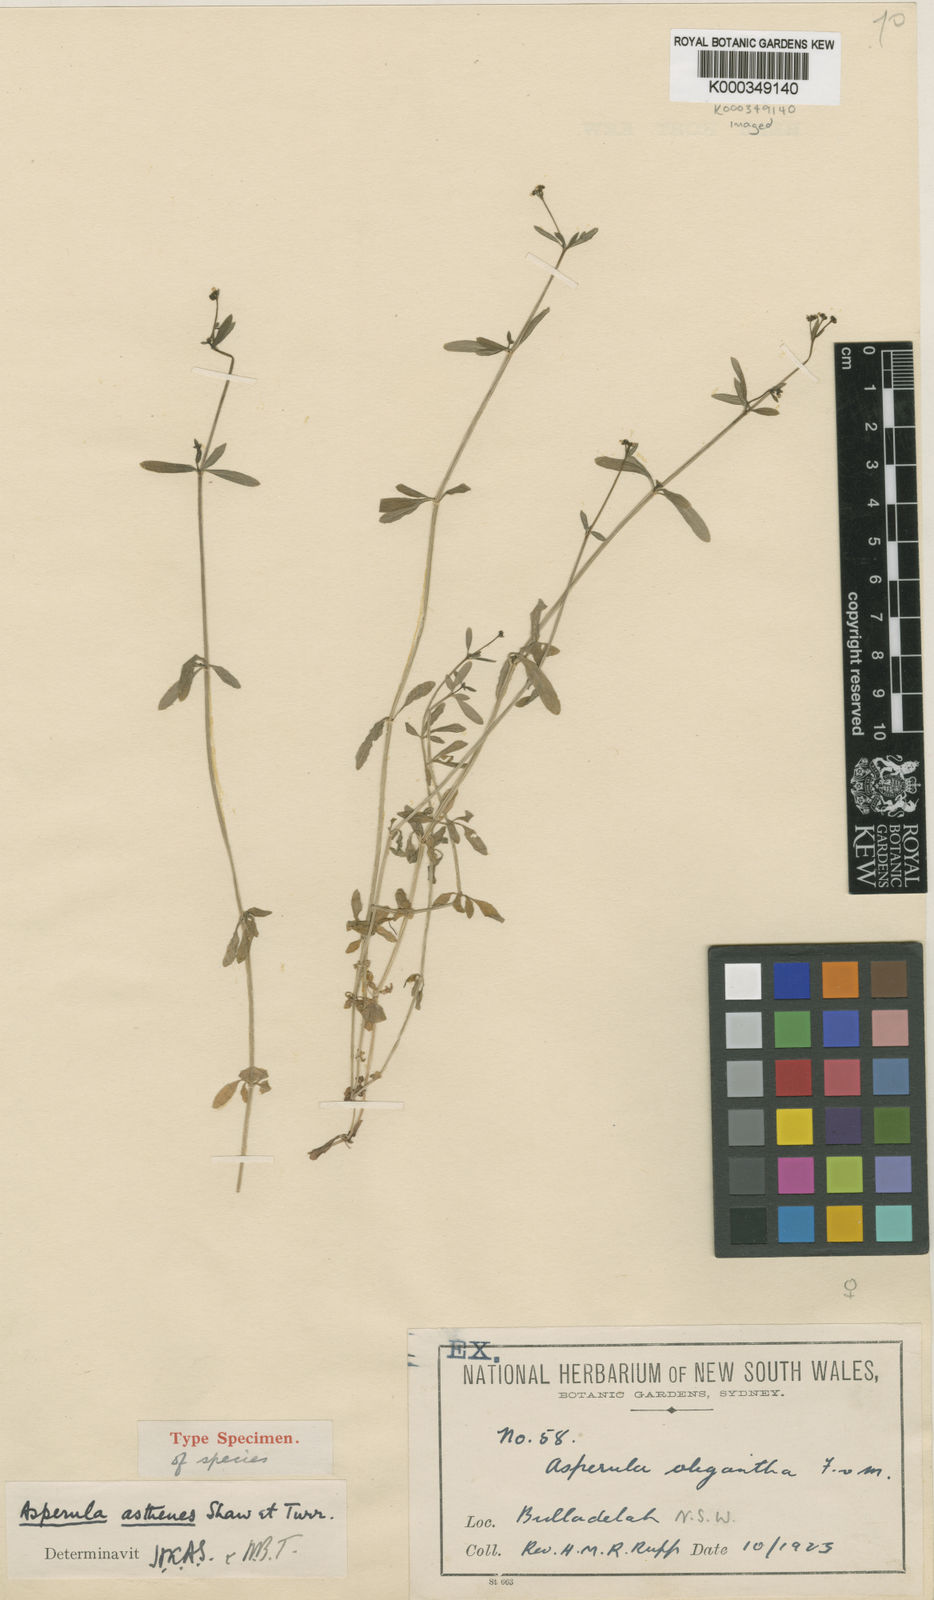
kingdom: Plantae
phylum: Tracheophyta
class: Magnoliopsida
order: Gentianales
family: Rubiaceae
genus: Asperula
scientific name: Asperula asthenes
